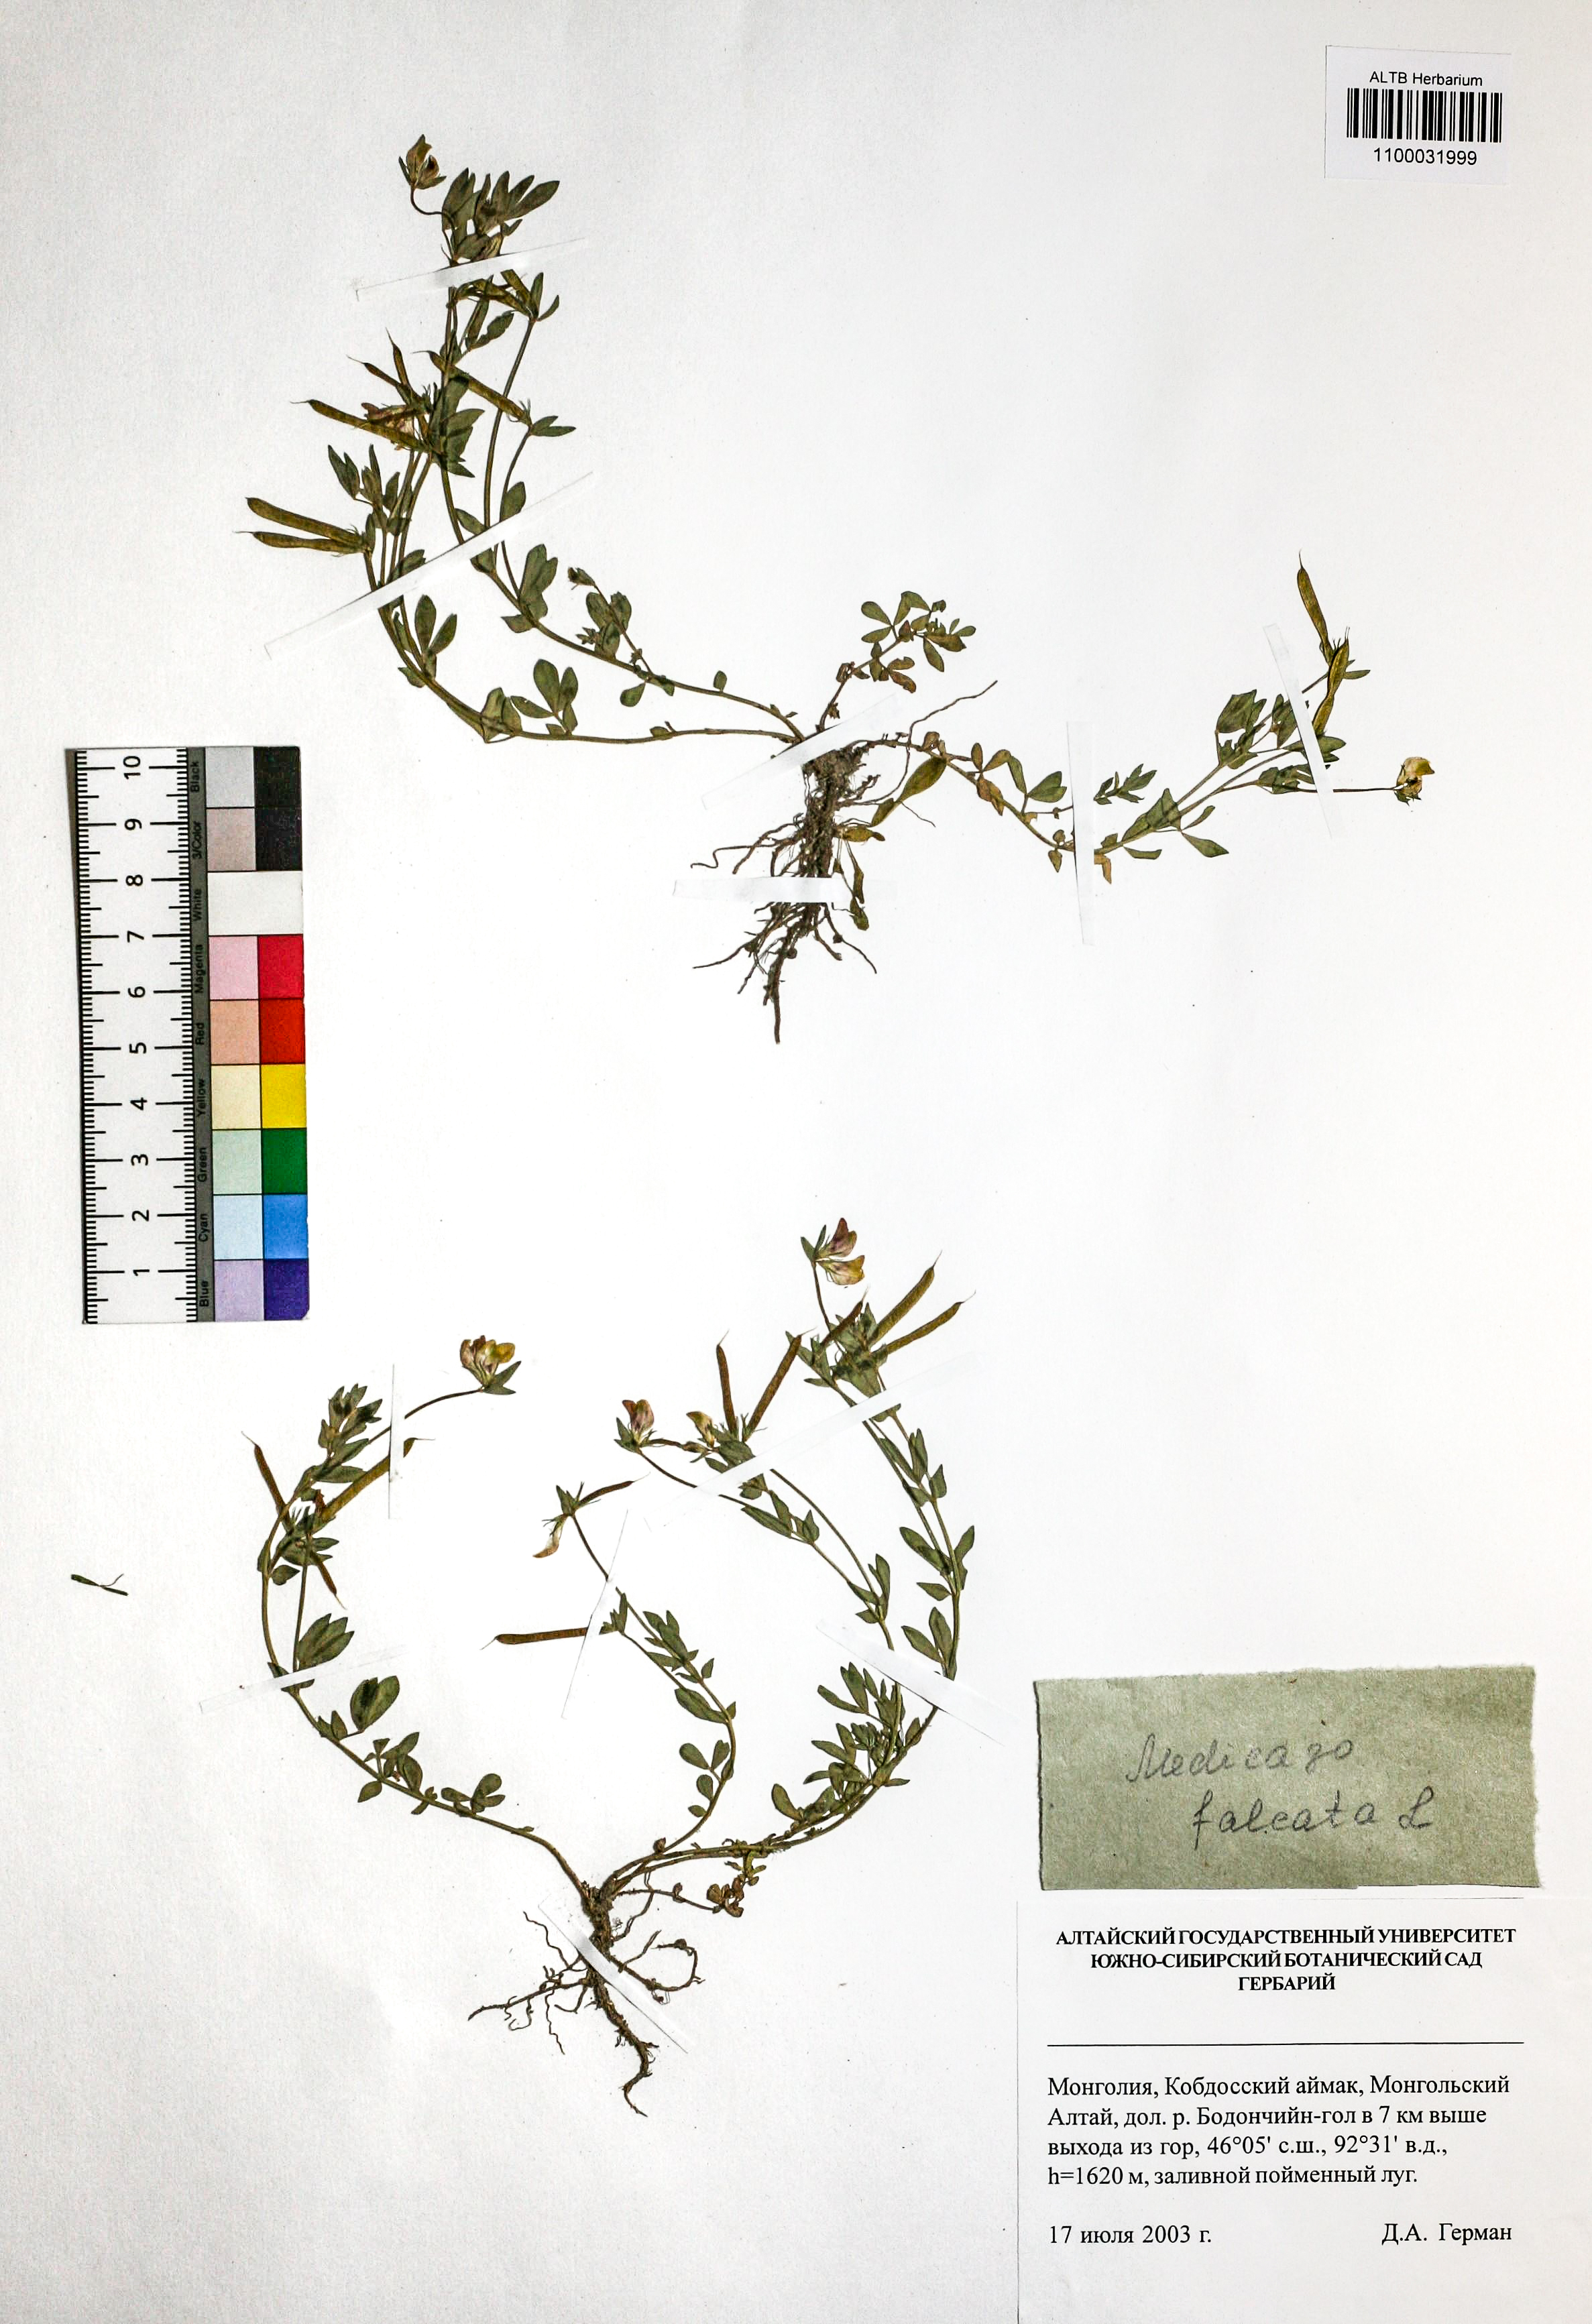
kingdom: Plantae
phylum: Tracheophyta
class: Magnoliopsida
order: Fabales
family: Fabaceae
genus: Medicago
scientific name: Medicago falcata
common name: Sickle medick
